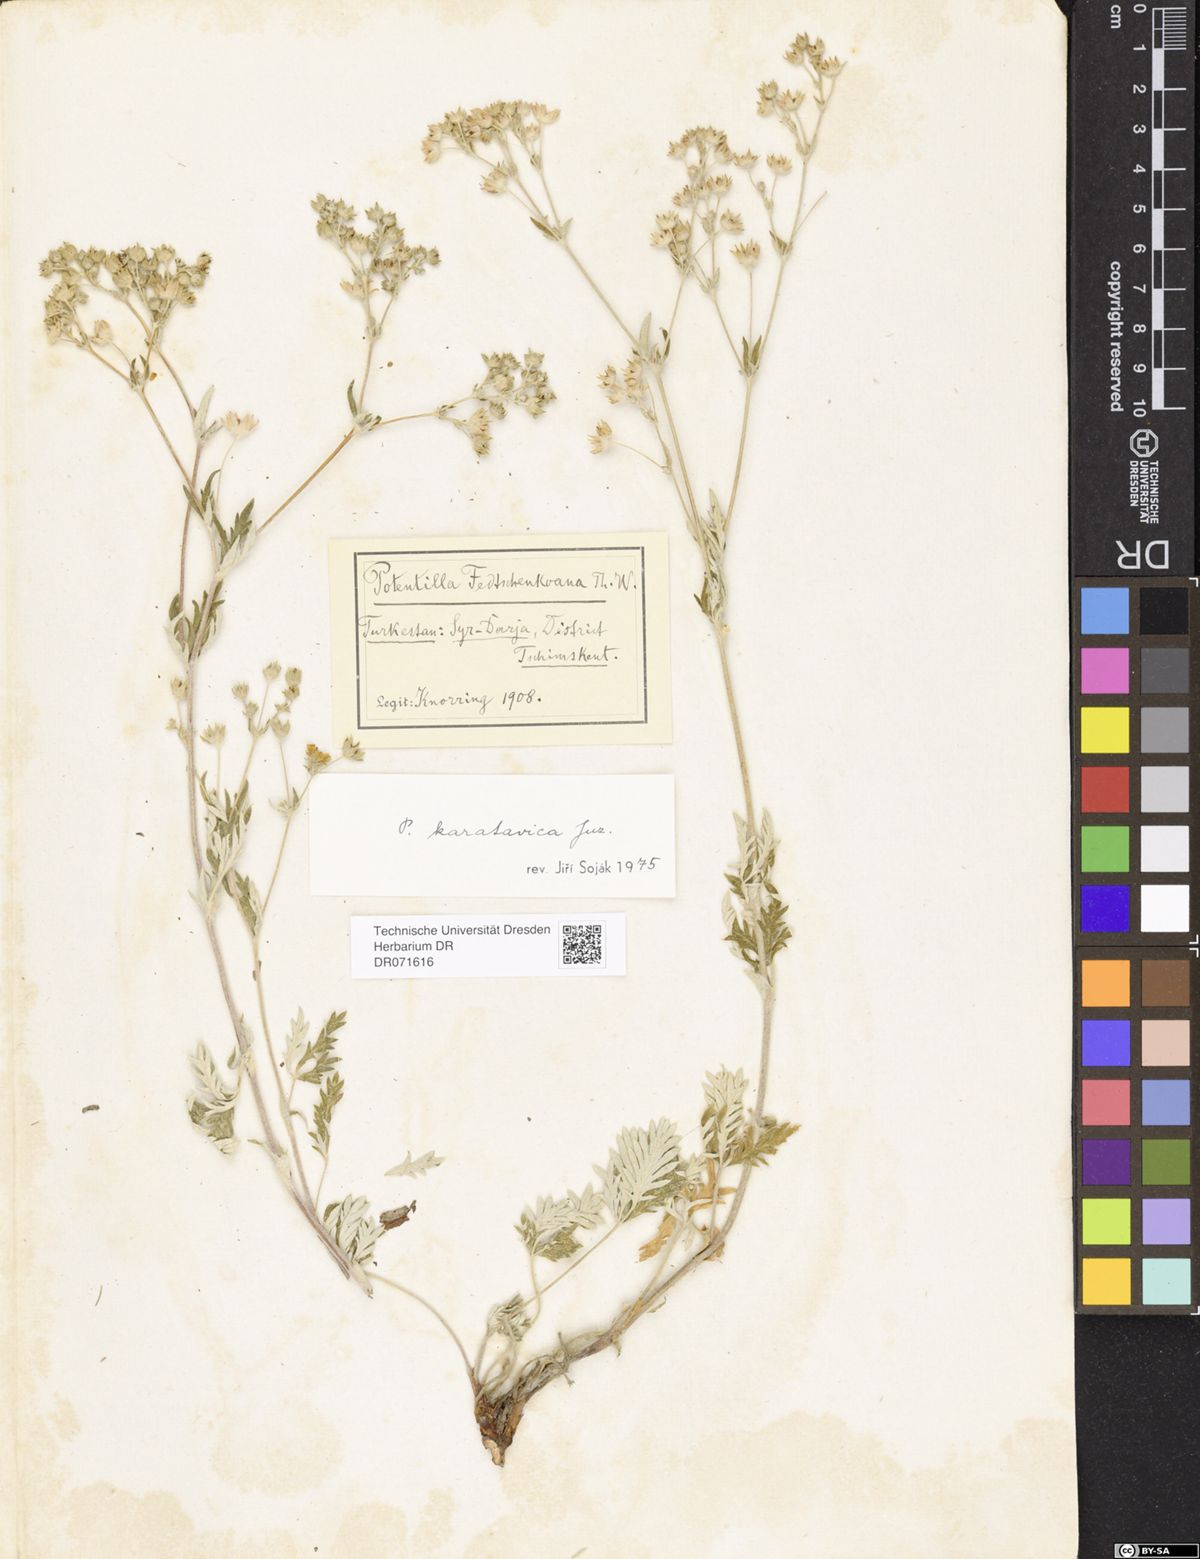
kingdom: Plantae
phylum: Tracheophyta
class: Magnoliopsida
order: Rosales
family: Rosaceae
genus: Potentilla
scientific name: Potentilla karatavica
